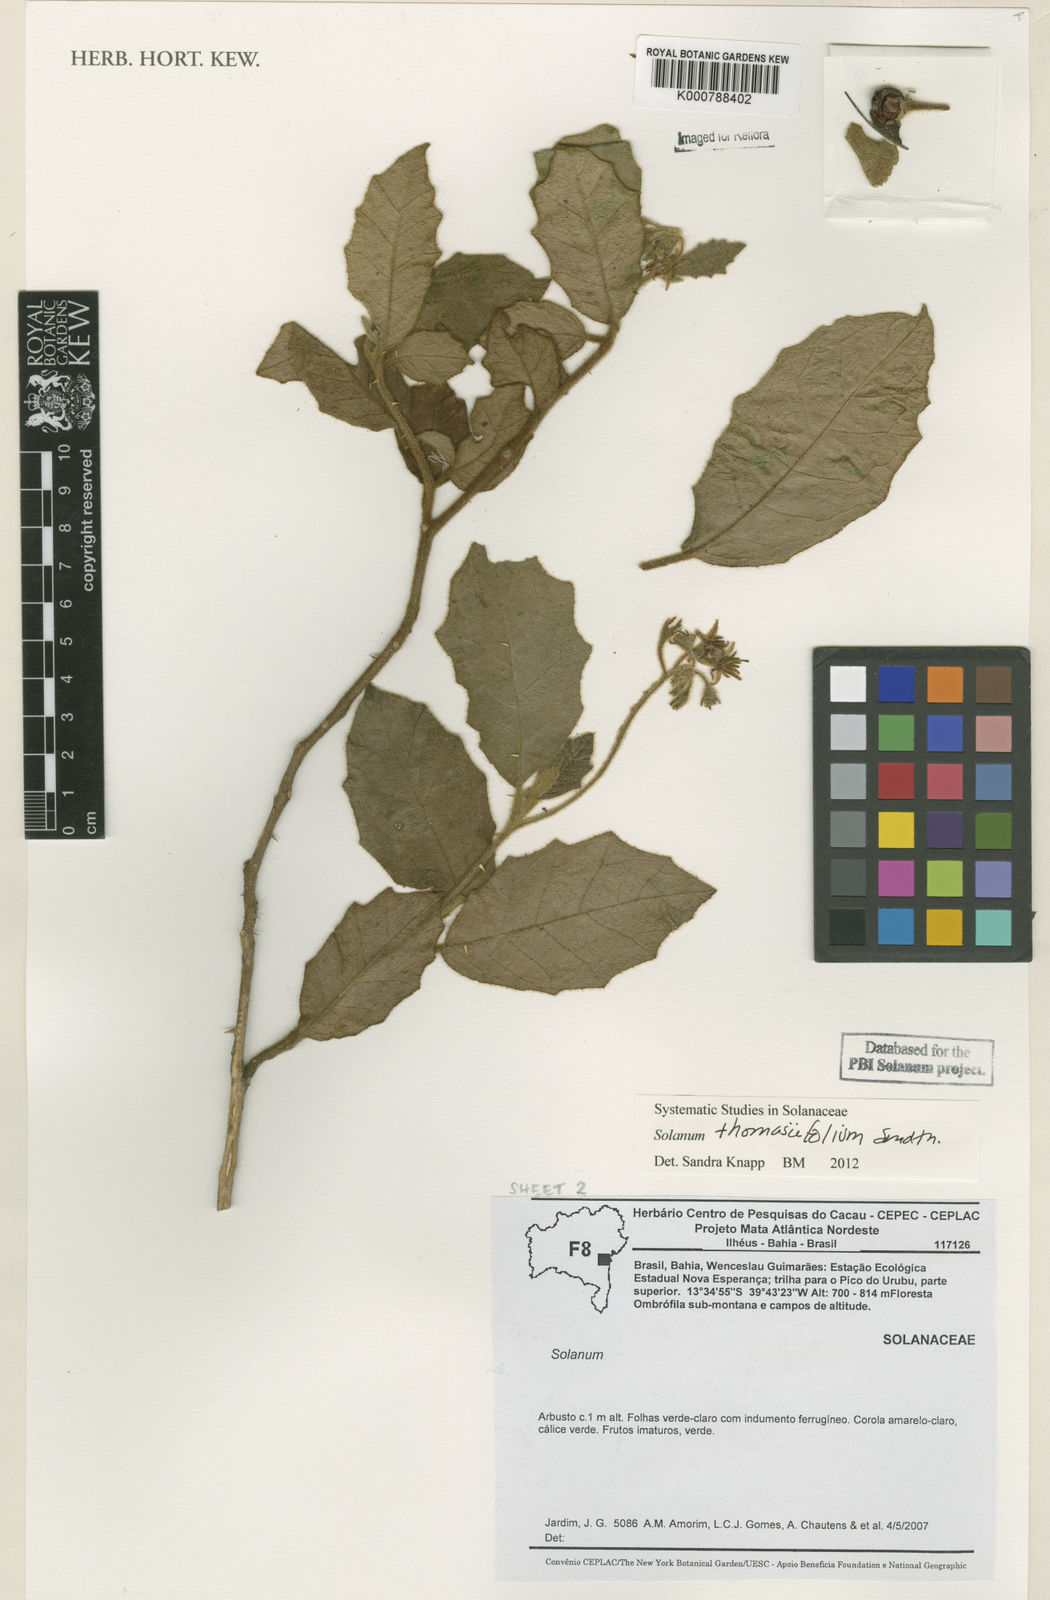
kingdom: Plantae
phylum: Tracheophyta
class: Magnoliopsida
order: Solanales
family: Solanaceae
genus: Solanum
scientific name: Solanum reflexiflorum
